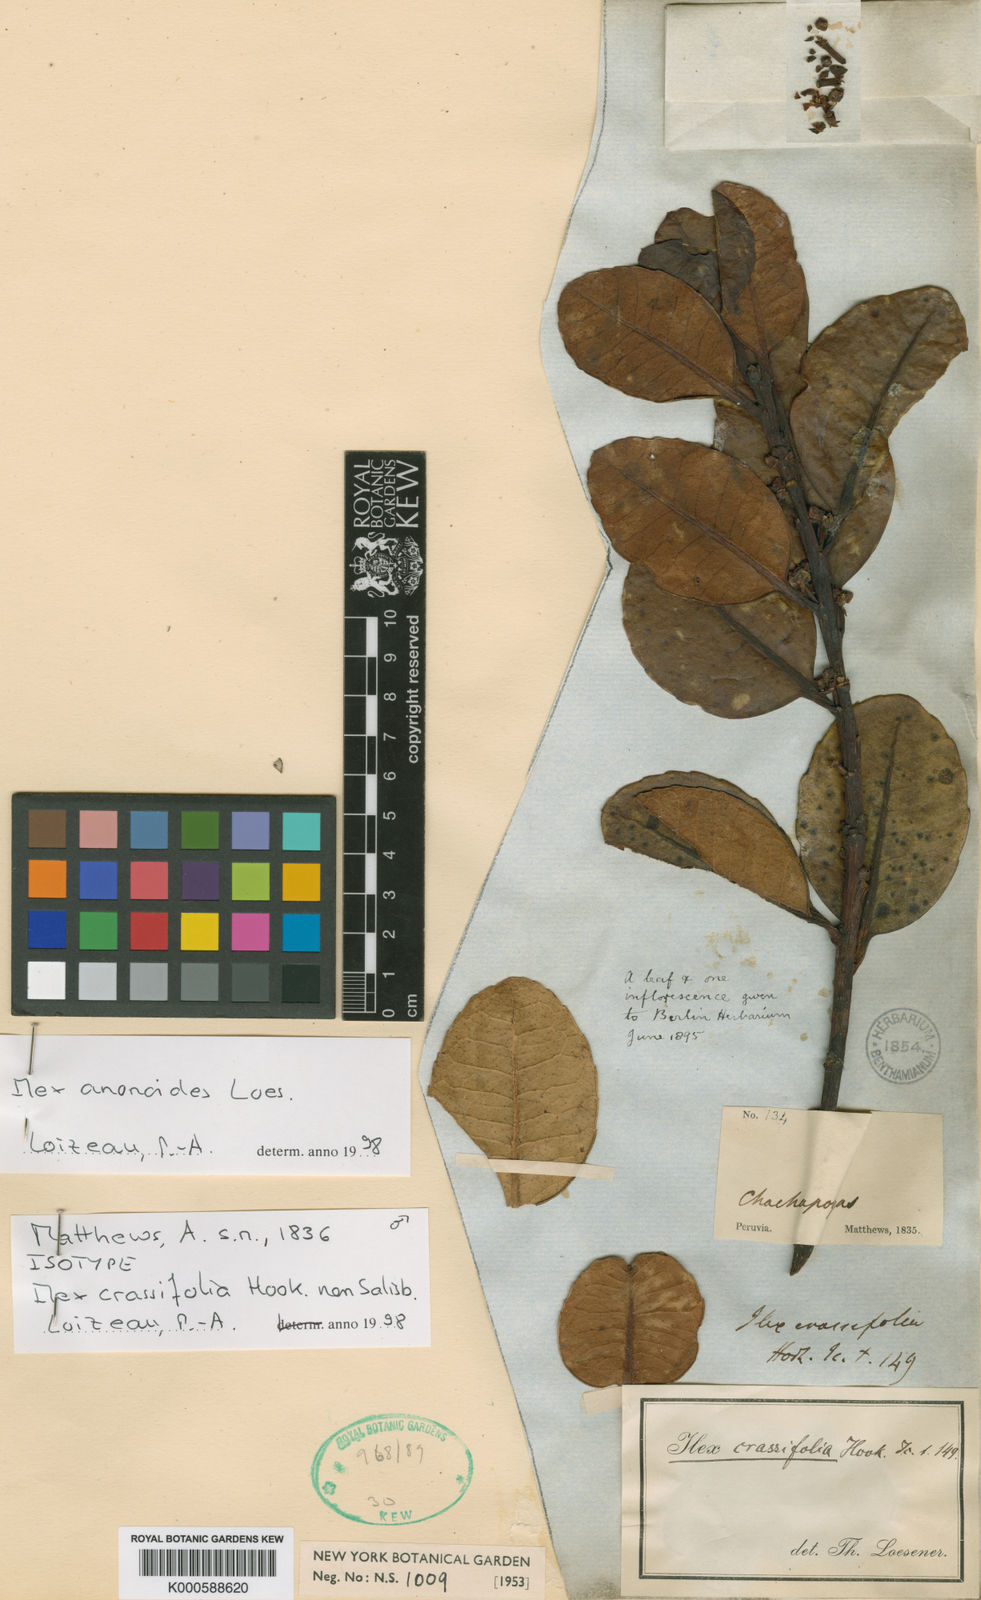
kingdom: Plantae
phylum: Tracheophyta
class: Magnoliopsida
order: Aquifoliales
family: Aquifoliaceae
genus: Ilex
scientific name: Ilex anonoides
